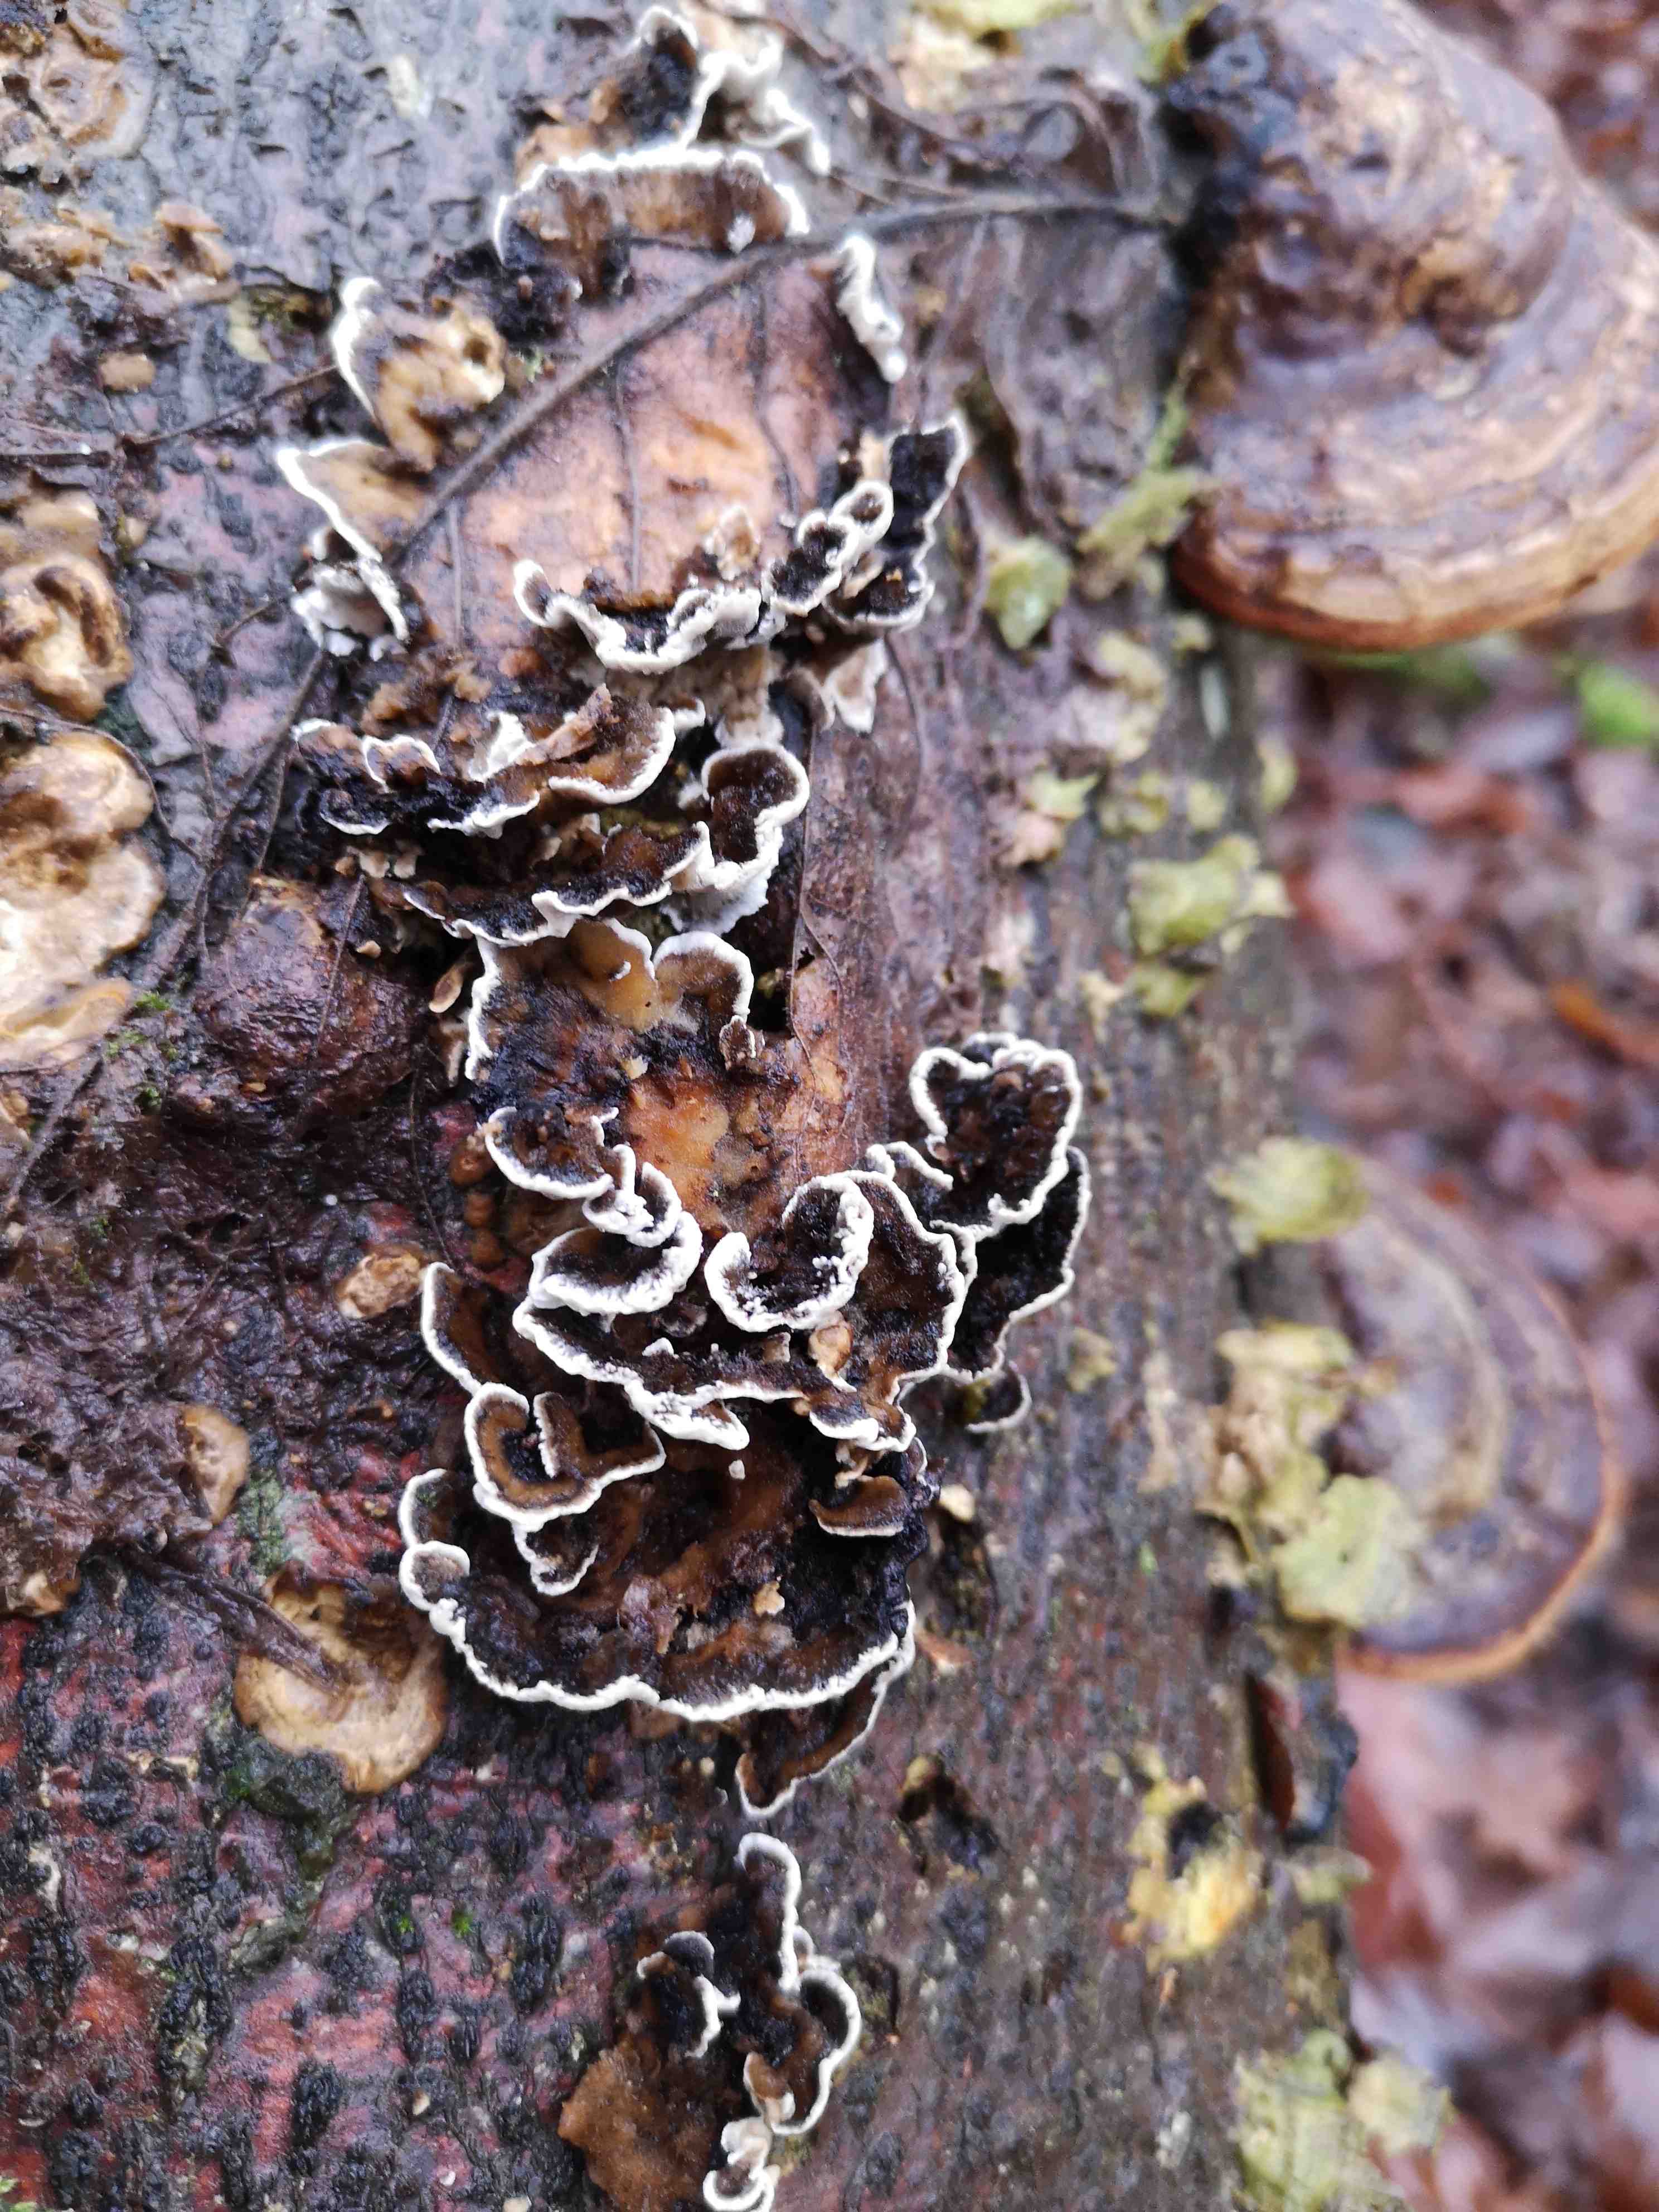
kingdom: Fungi
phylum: Basidiomycota
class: Agaricomycetes
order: Polyporales
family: Phanerochaetaceae
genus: Bjerkandera
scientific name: Bjerkandera adusta
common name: sveden sodporesvamp
